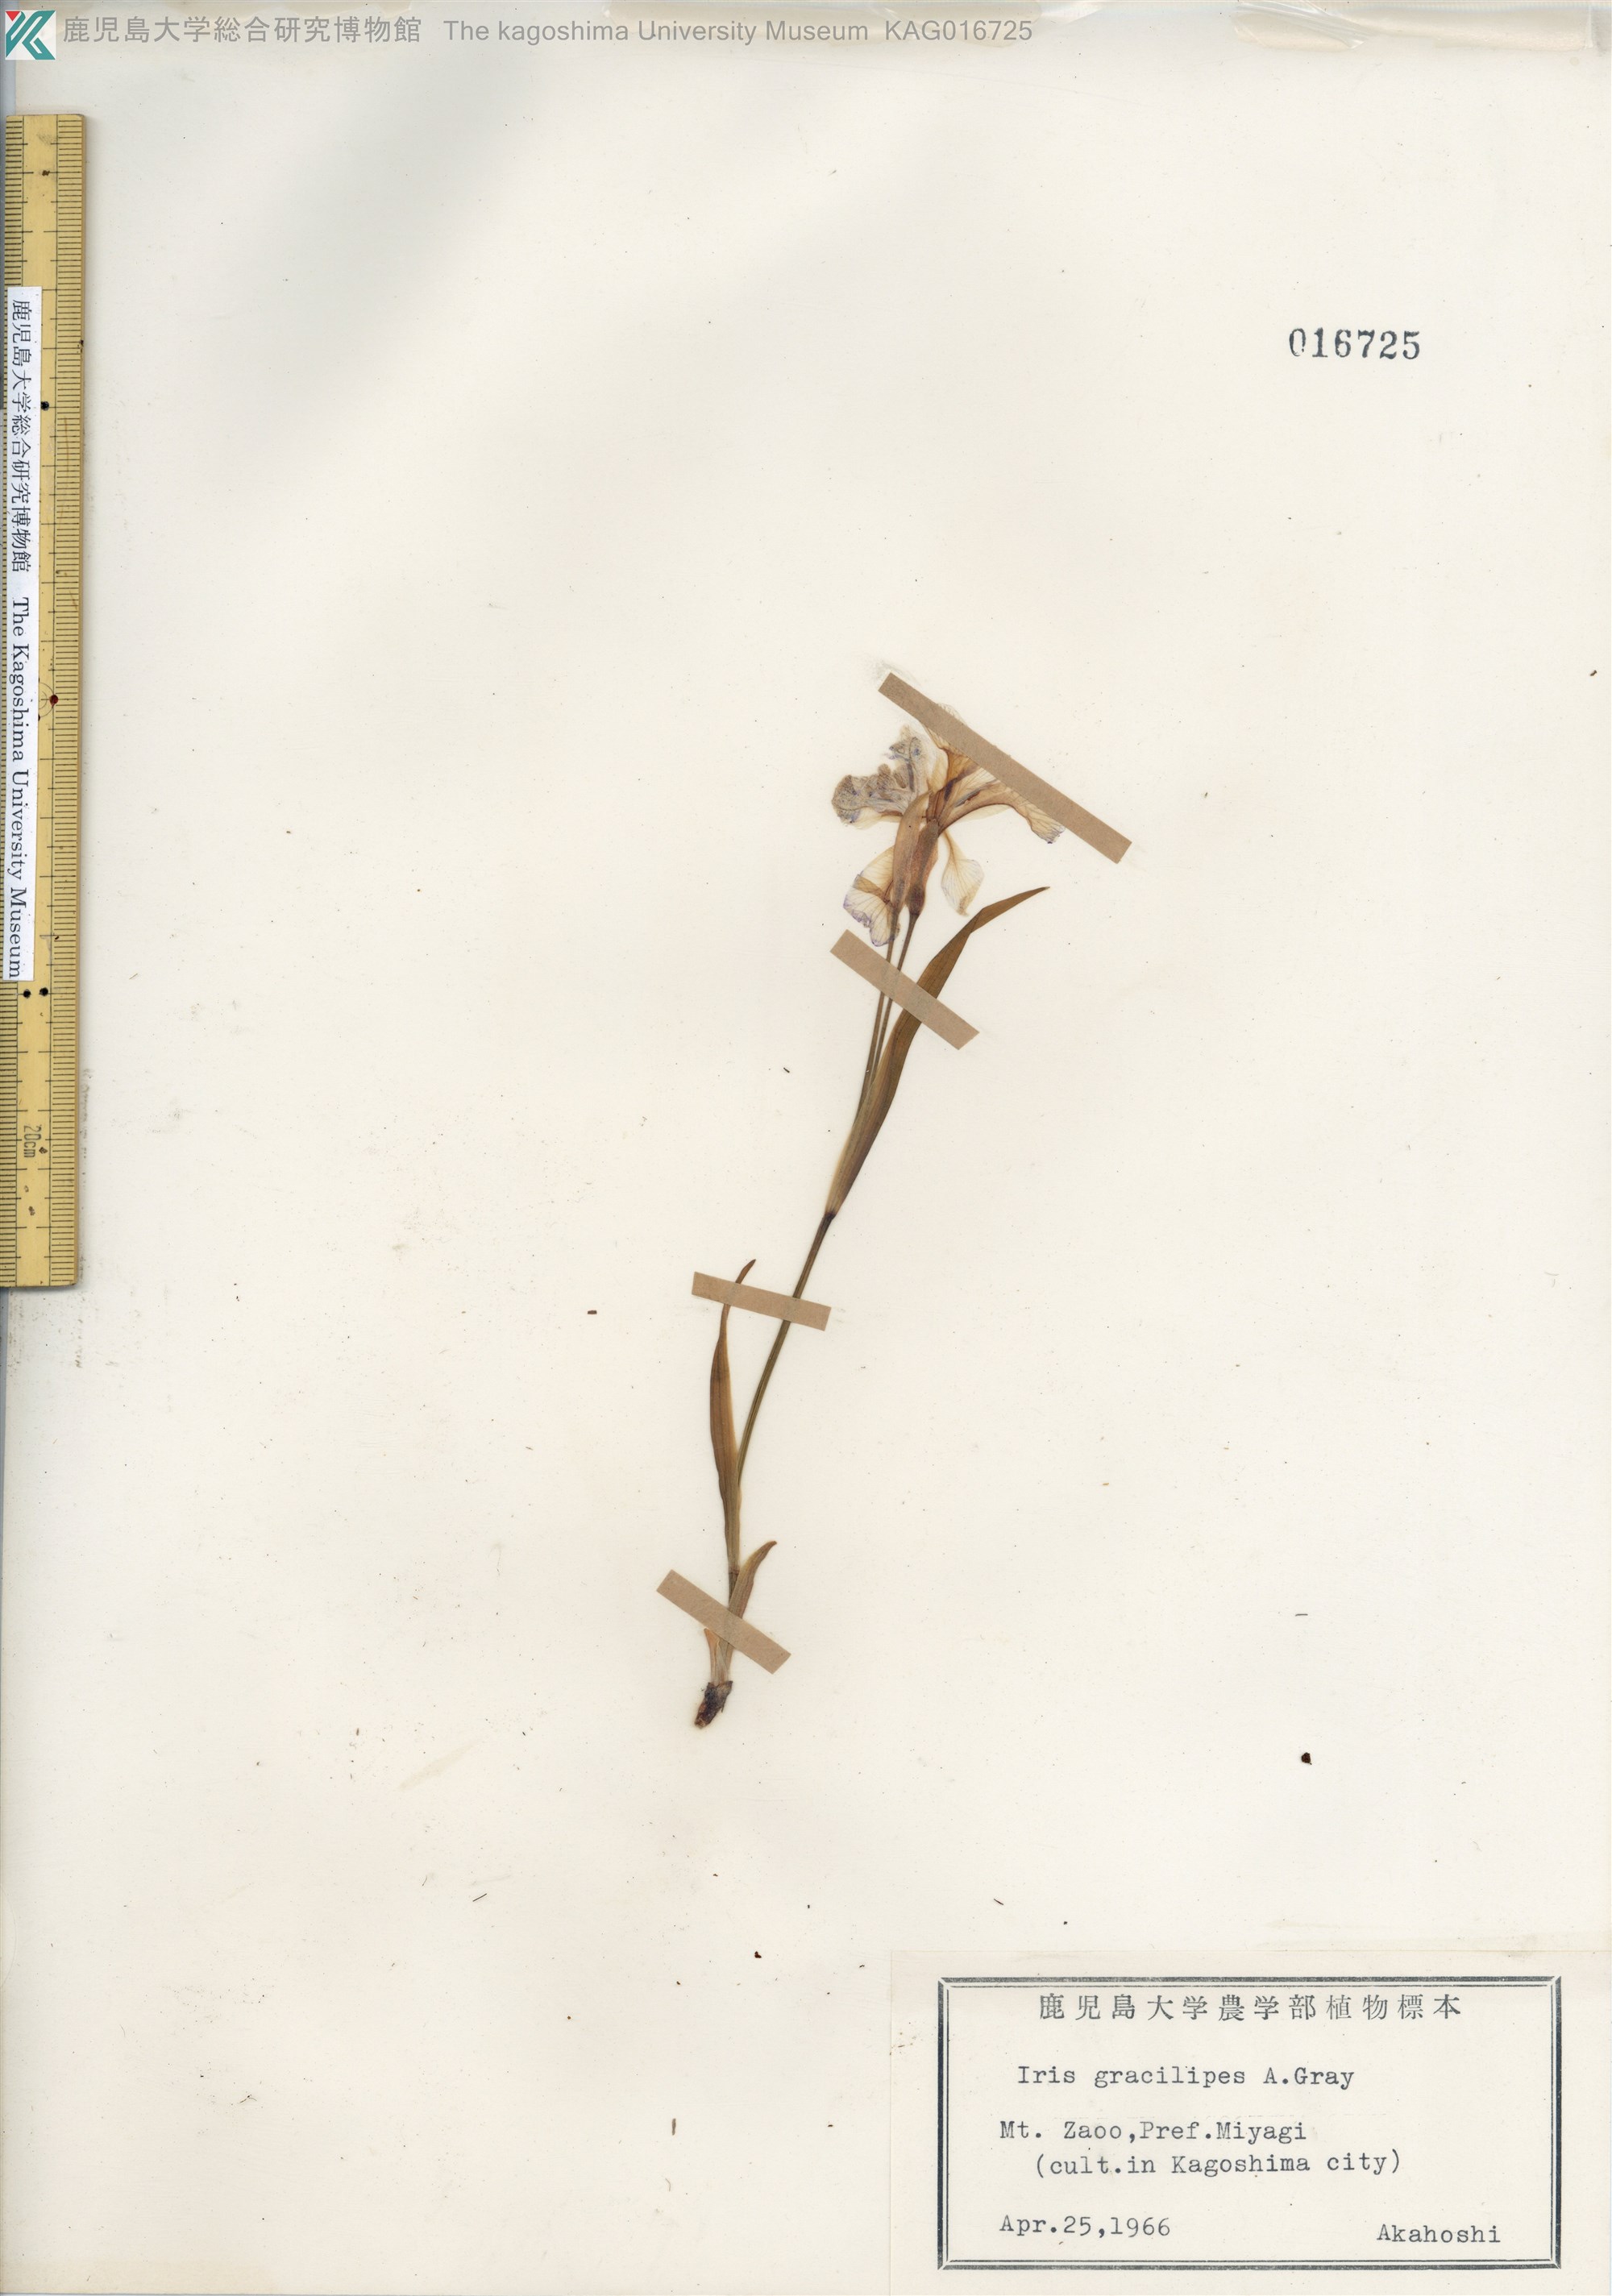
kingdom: Plantae
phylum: Tracheophyta
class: Liliopsida
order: Asparagales
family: Iridaceae
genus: Iris
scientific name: Iris gracilipes
